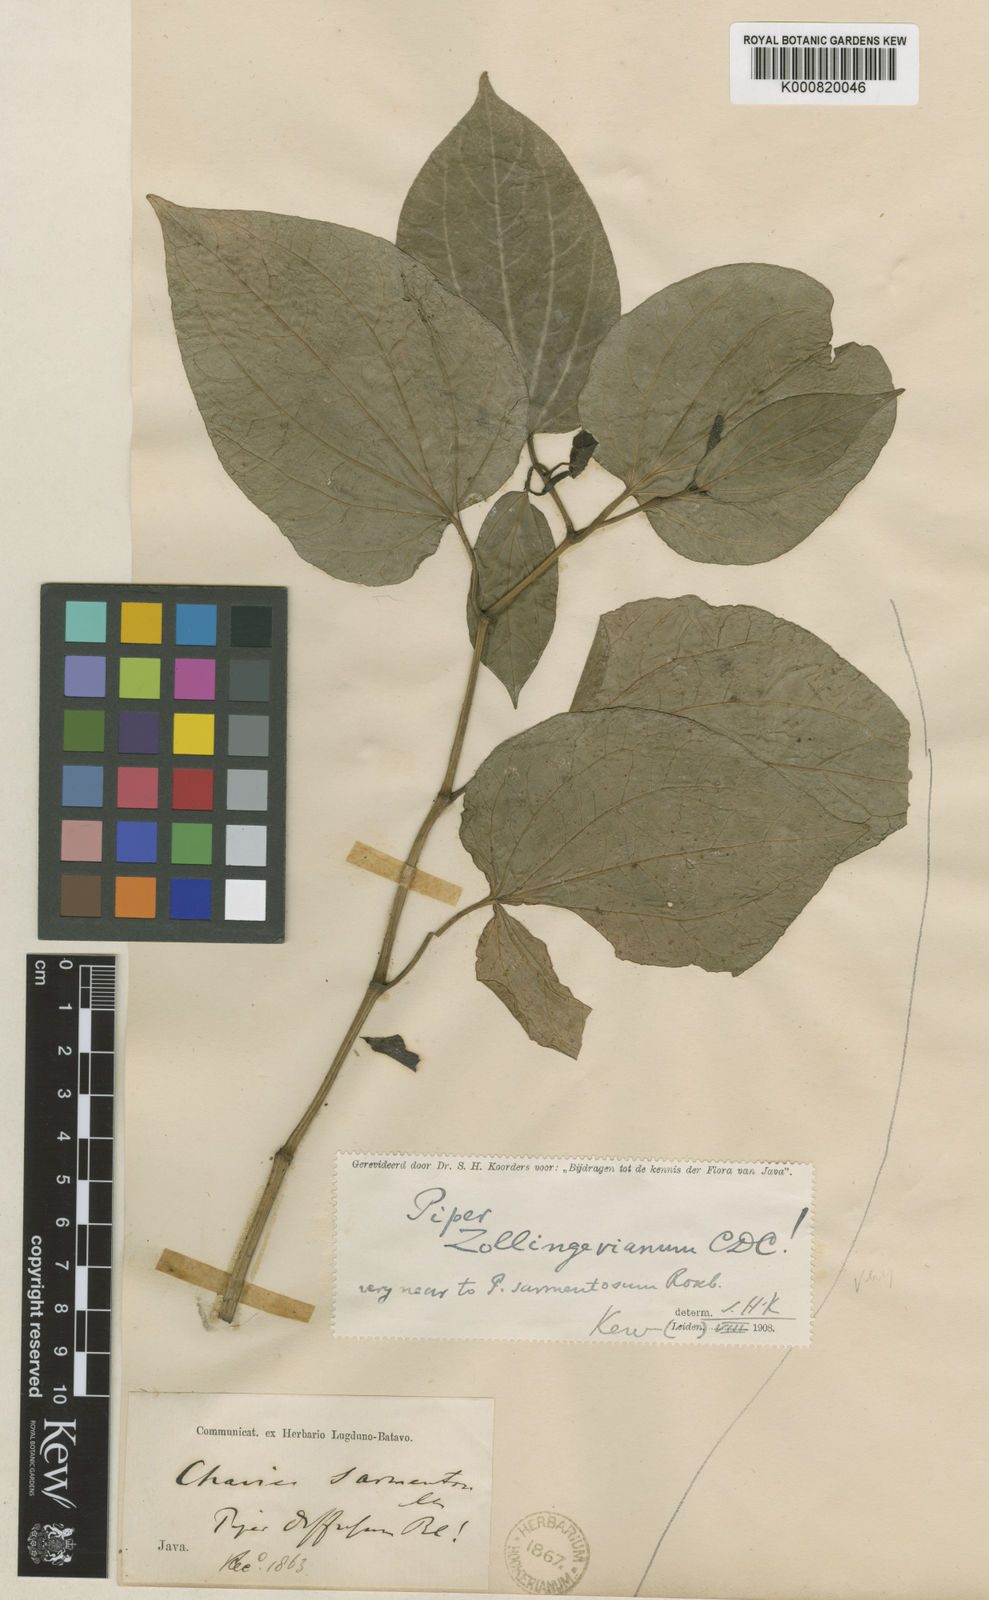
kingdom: Plantae
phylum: Tracheophyta
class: Magnoliopsida
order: Piperales
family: Piperaceae
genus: Piper
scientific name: Piper arcuatum
